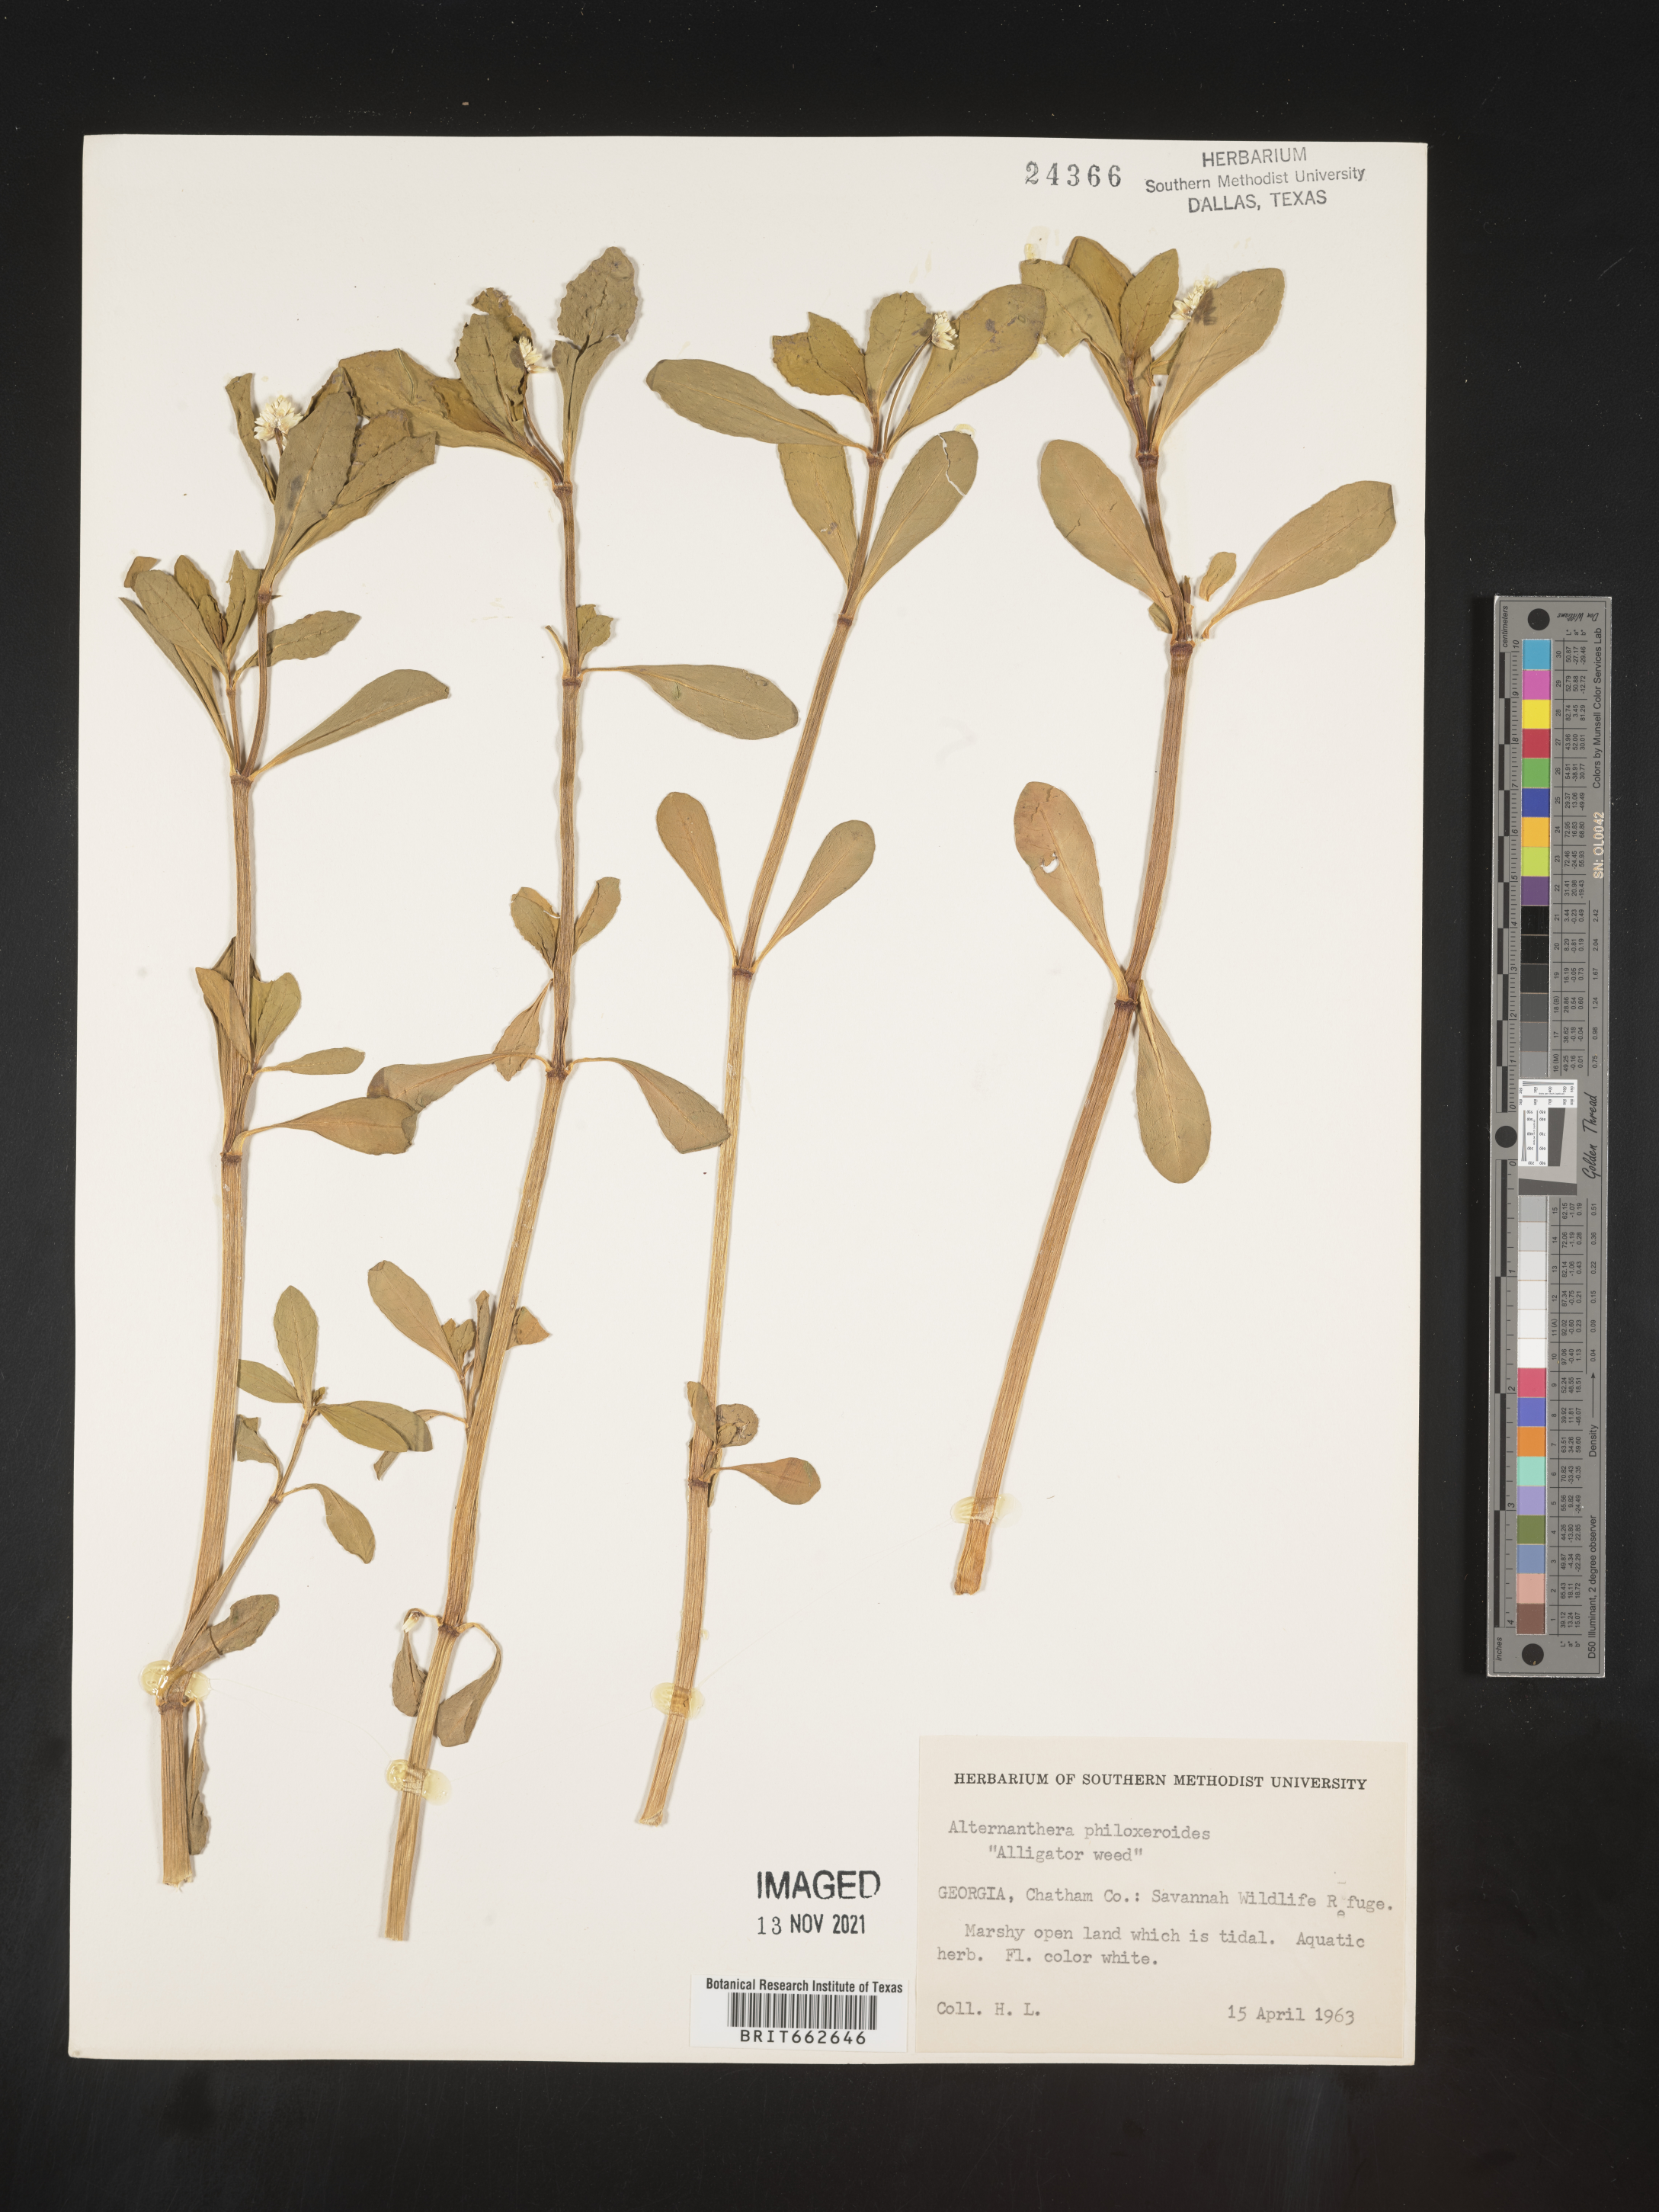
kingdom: Plantae
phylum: Tracheophyta
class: Magnoliopsida
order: Caryophyllales
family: Amaranthaceae
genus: Alternanthera
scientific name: Alternanthera philoxeroides
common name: Alligatorweed
